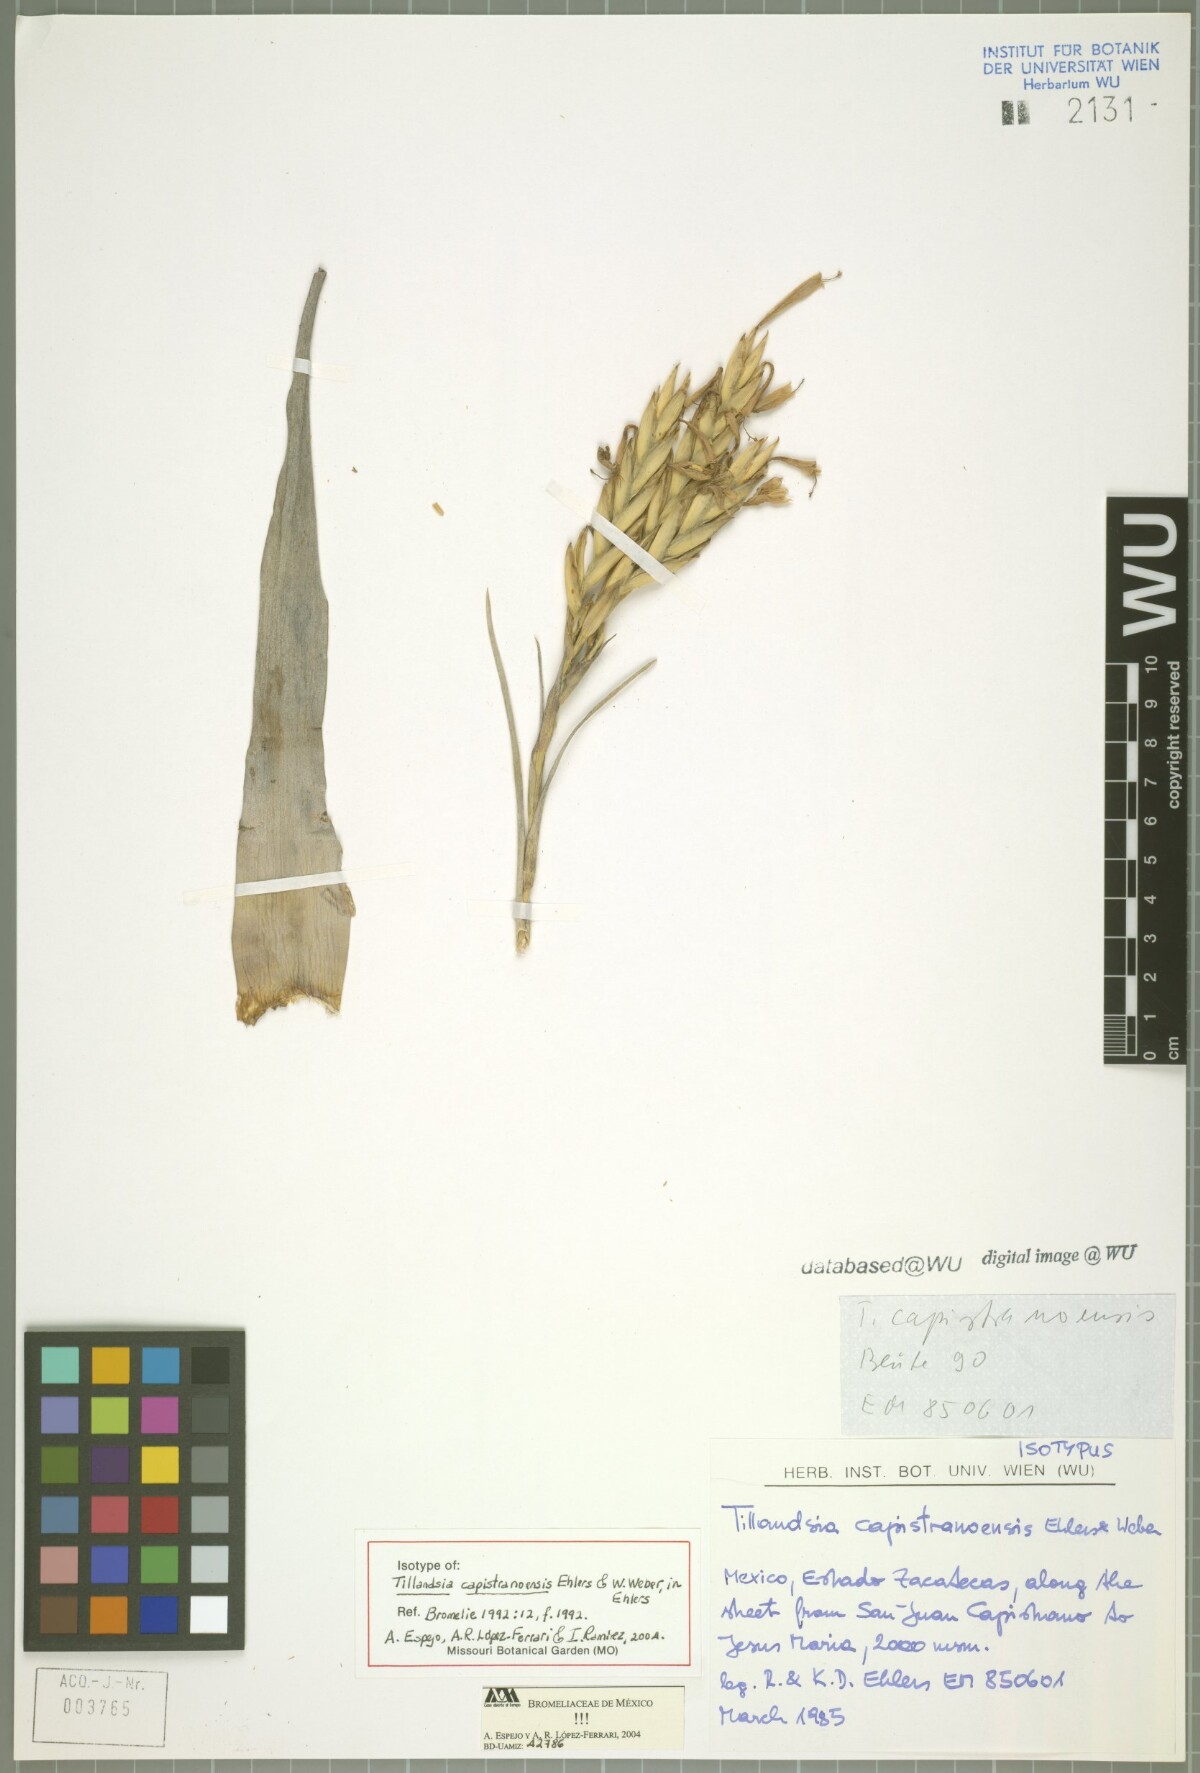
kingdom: Plantae
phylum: Tracheophyta
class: Liliopsida
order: Poales
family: Bromeliaceae
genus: Tillandsia
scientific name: Tillandsia capistranoensis
